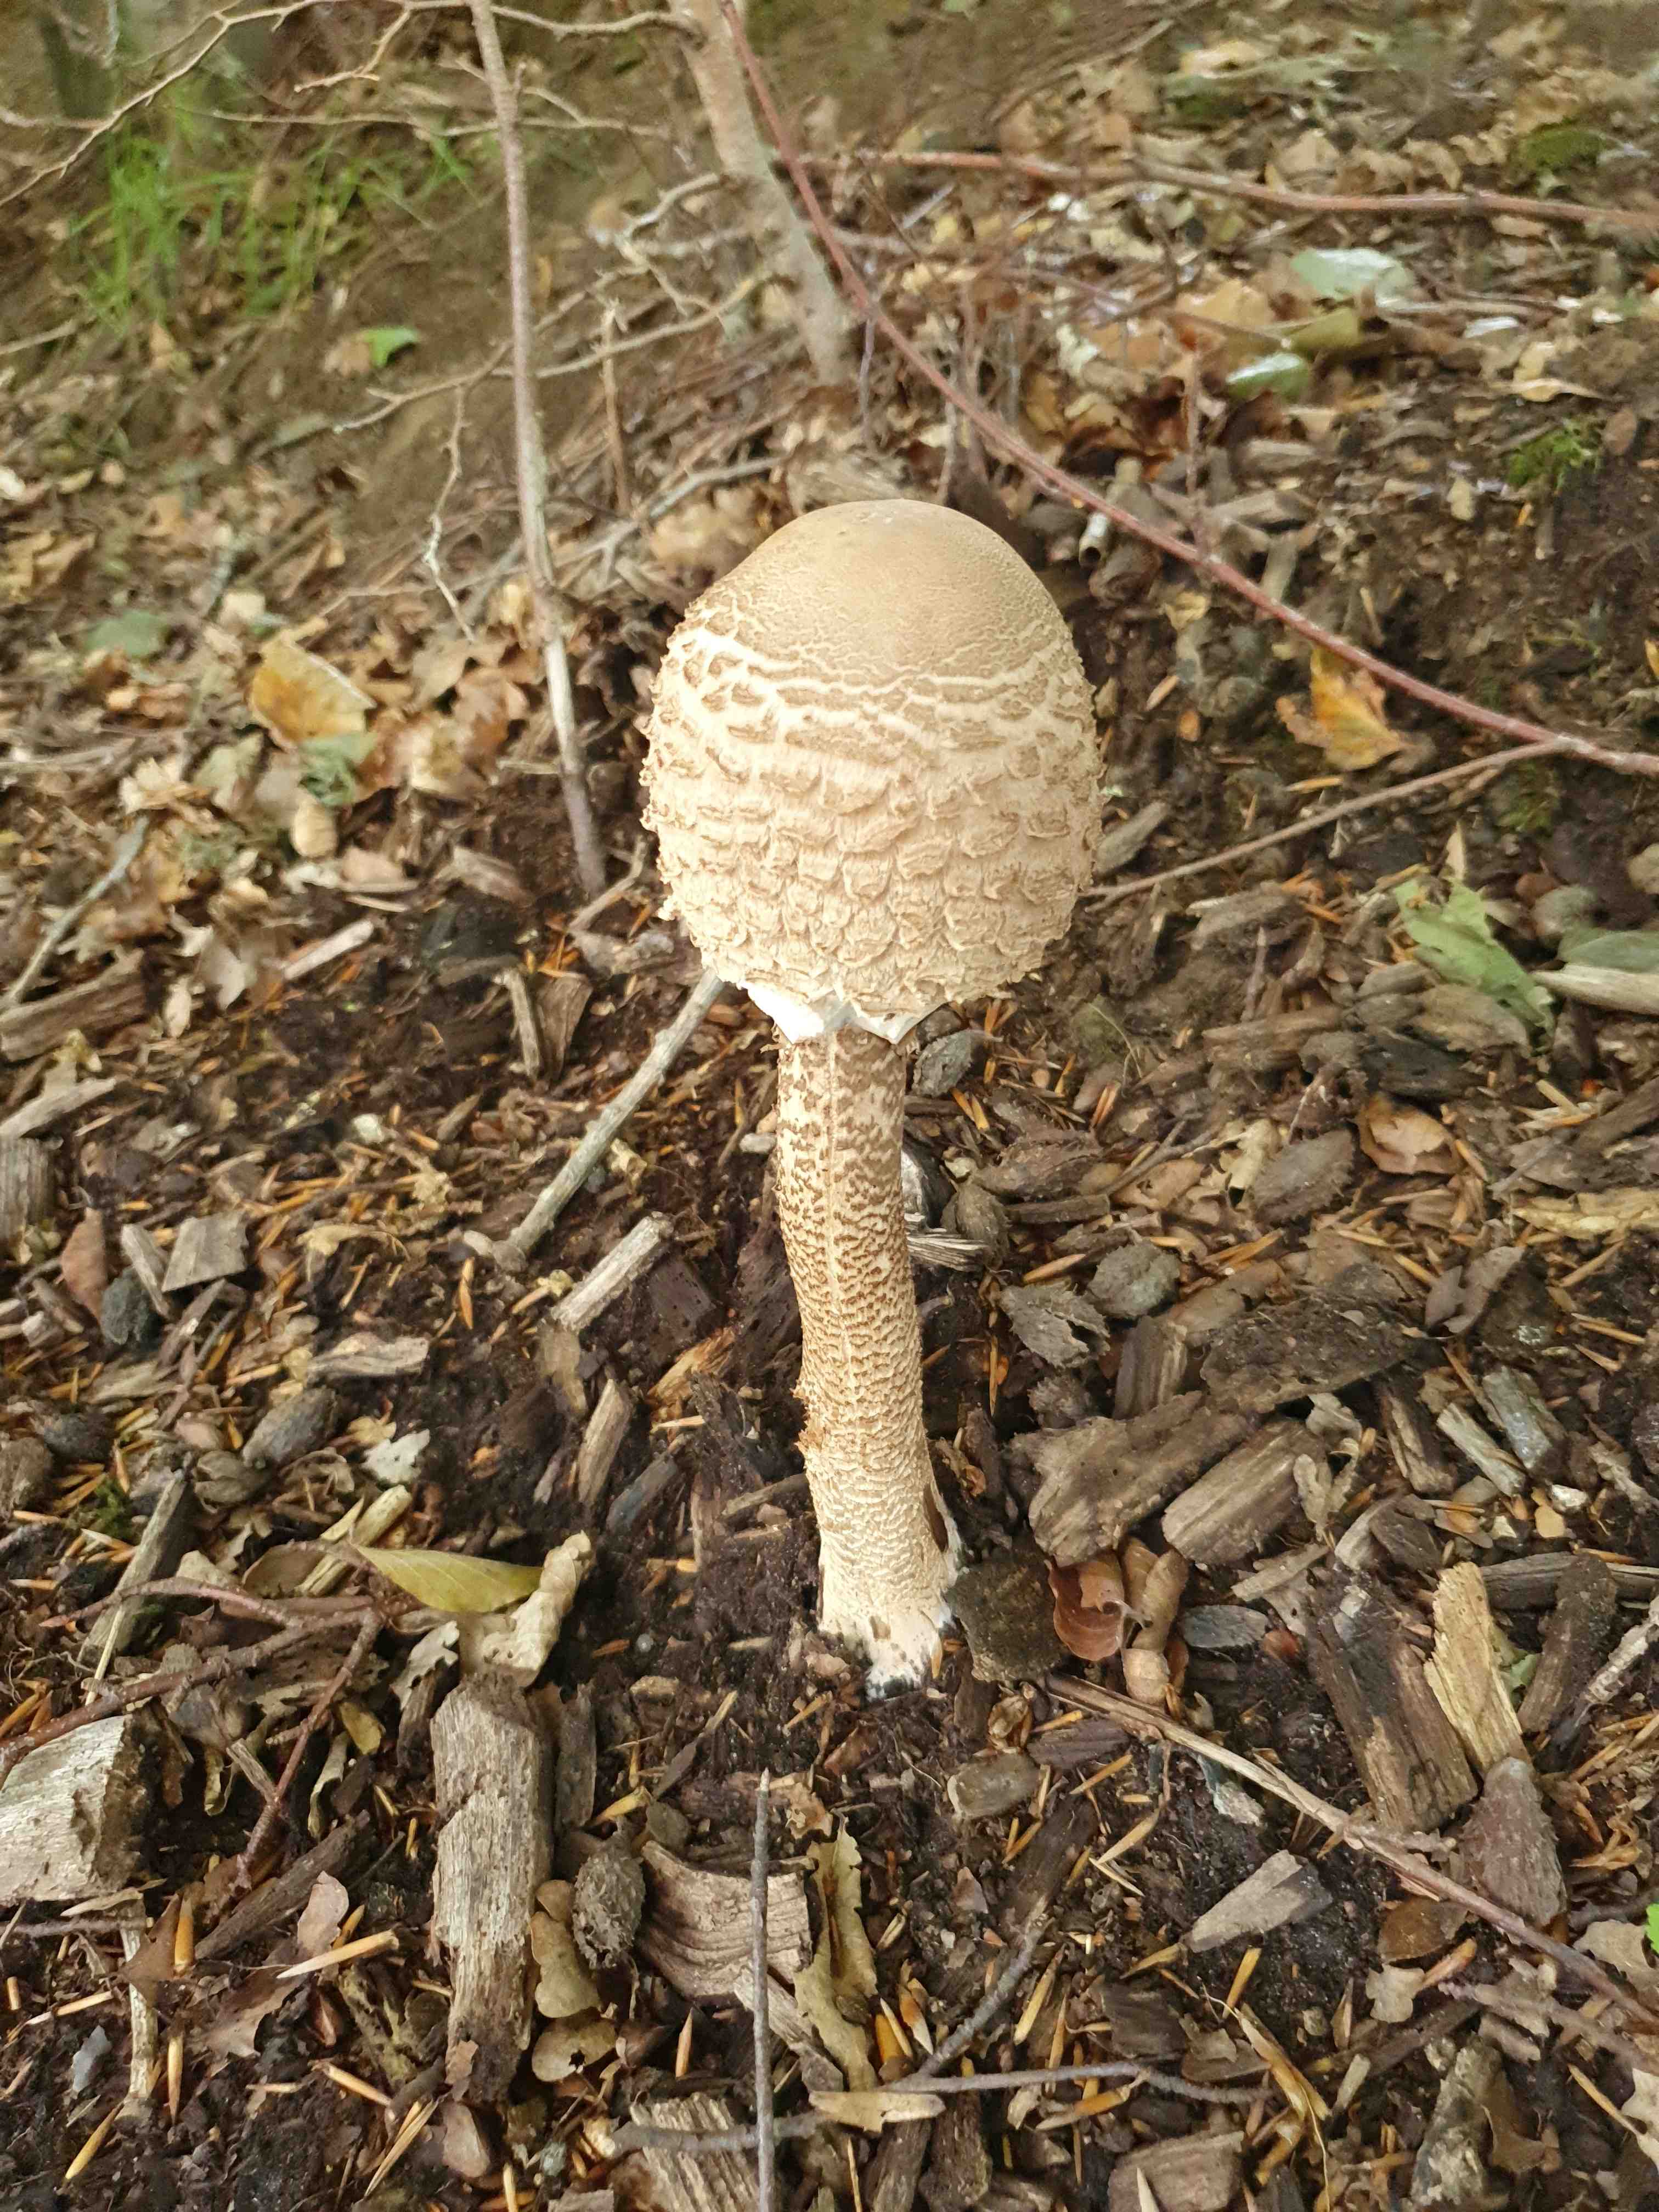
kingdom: Fungi
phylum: Basidiomycota
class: Agaricomycetes
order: Agaricales
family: Agaricaceae
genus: Macrolepiota
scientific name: Macrolepiota procera
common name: stor kæmpeparasolhat
